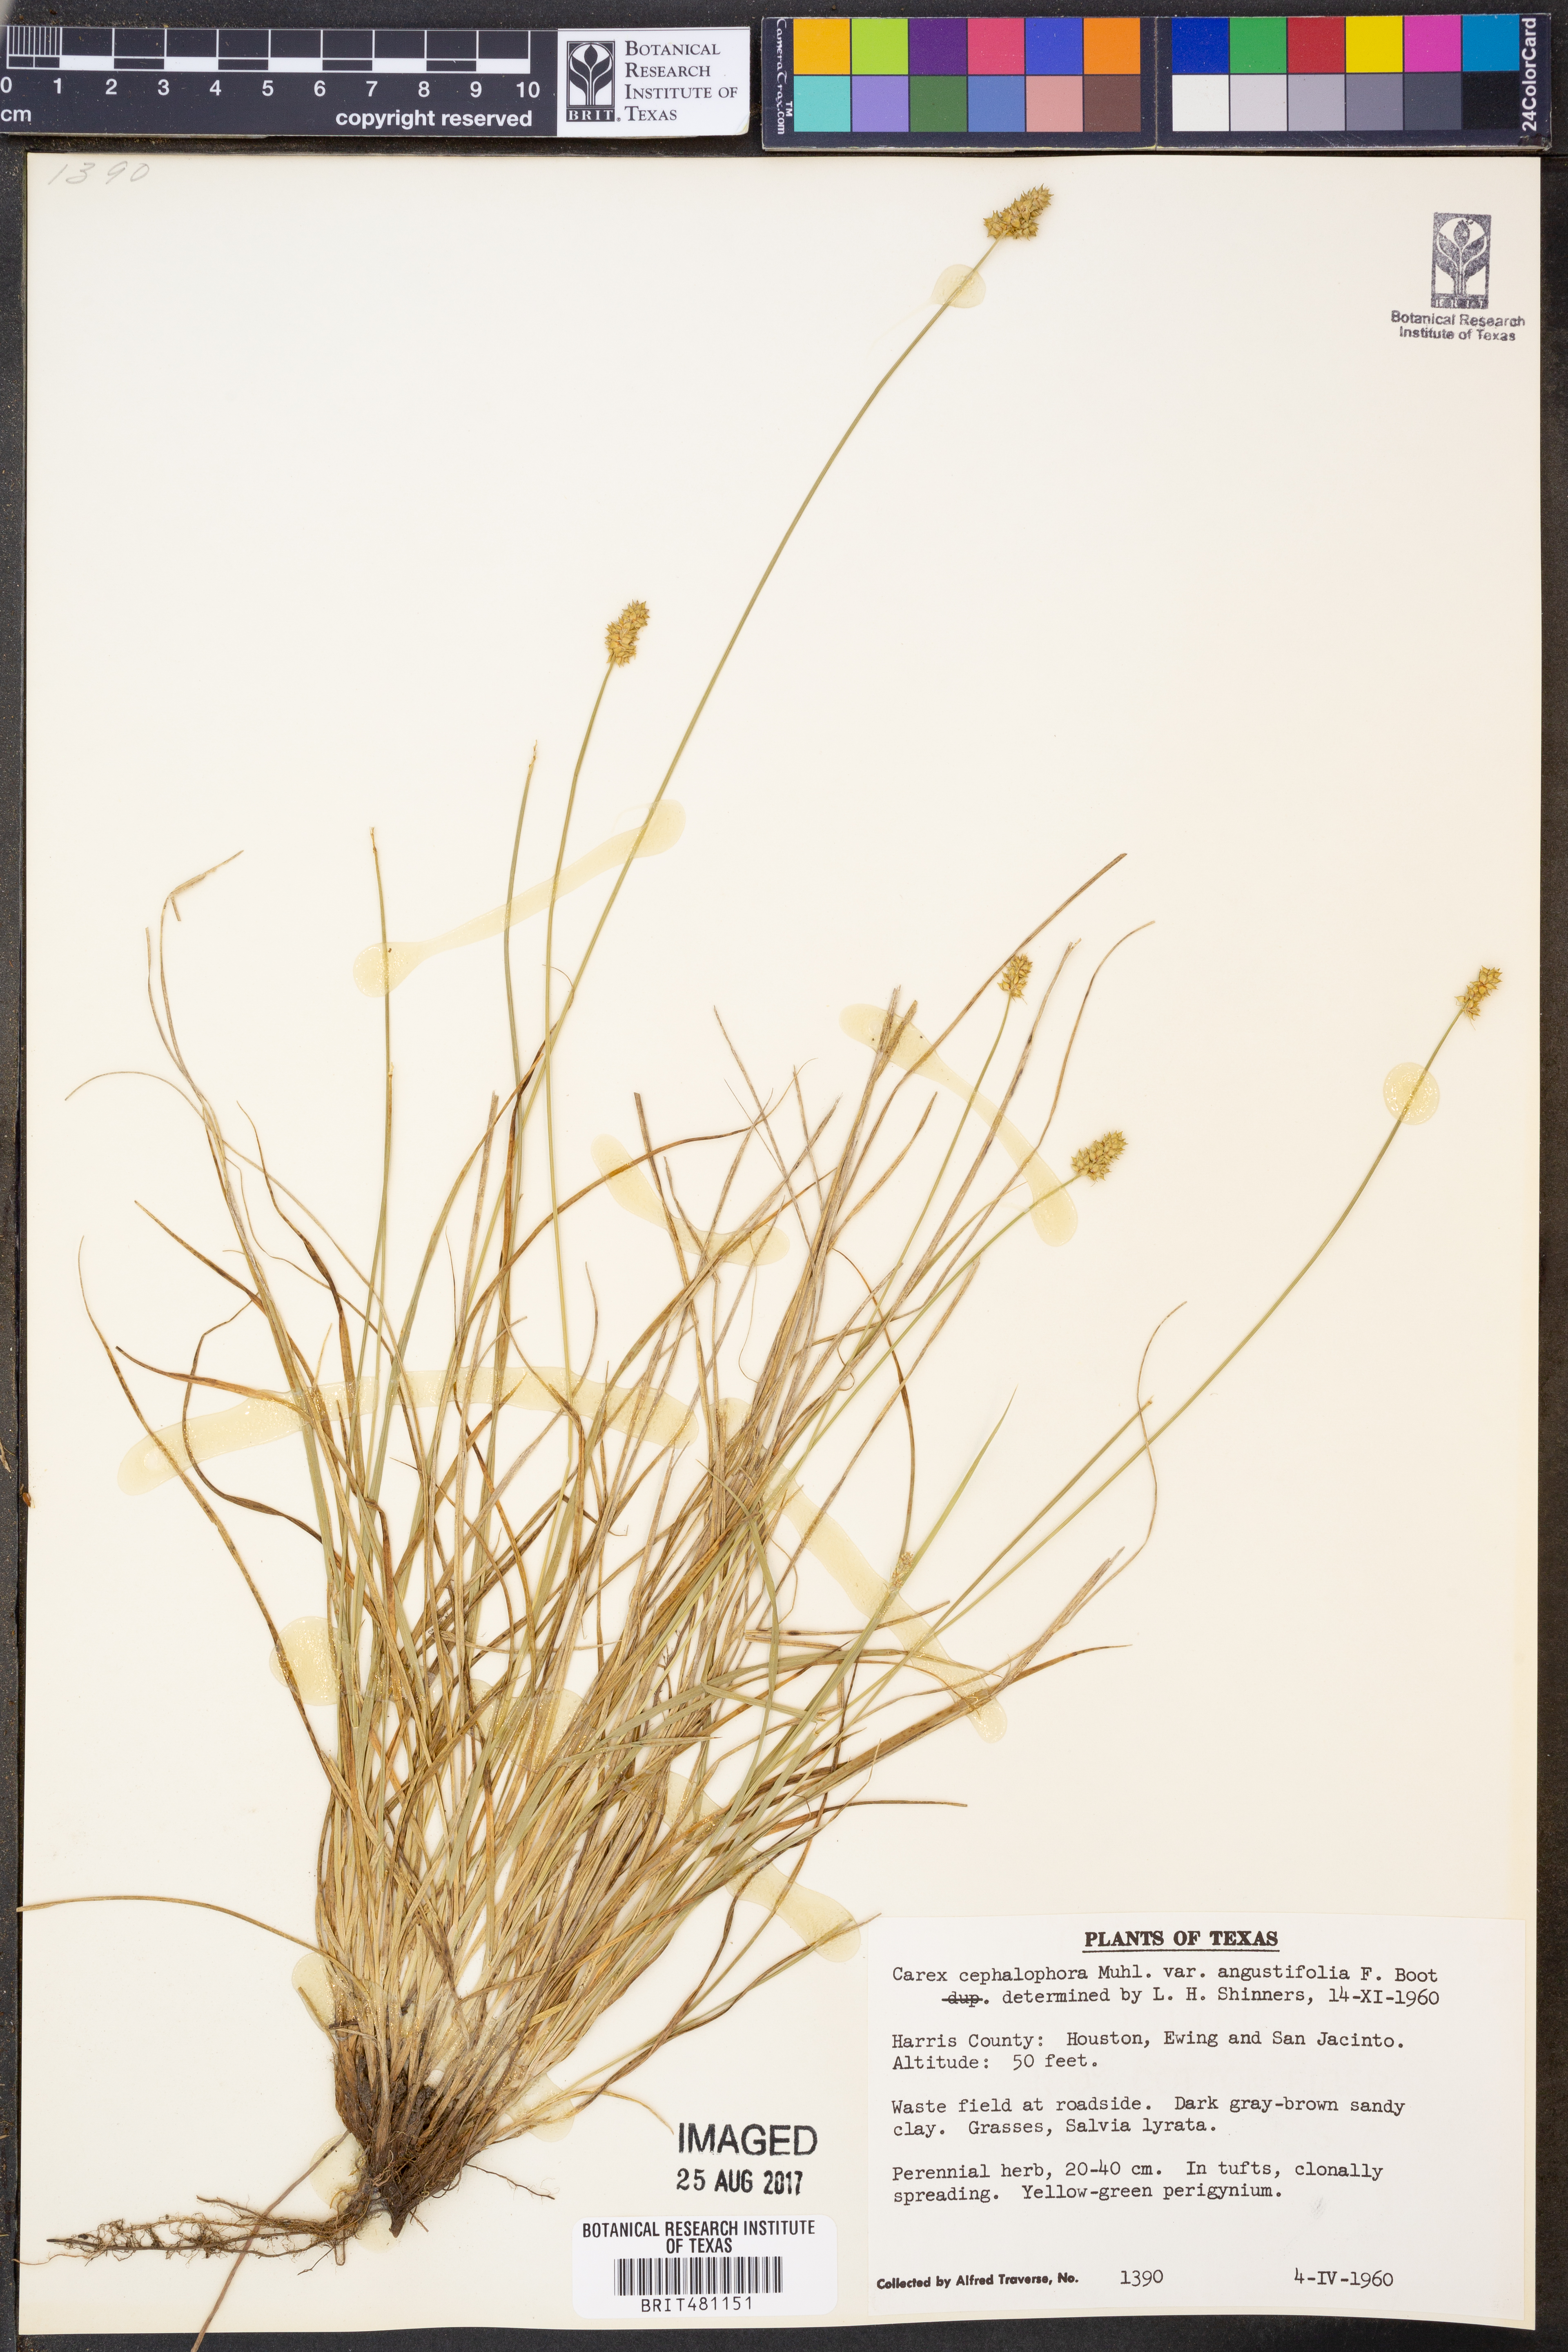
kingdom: Plantae
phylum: Tracheophyta
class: Liliopsida
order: Poales
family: Cyperaceae
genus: Carex
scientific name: Carex leavenworthii
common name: Leavenworth's bracted sedge
